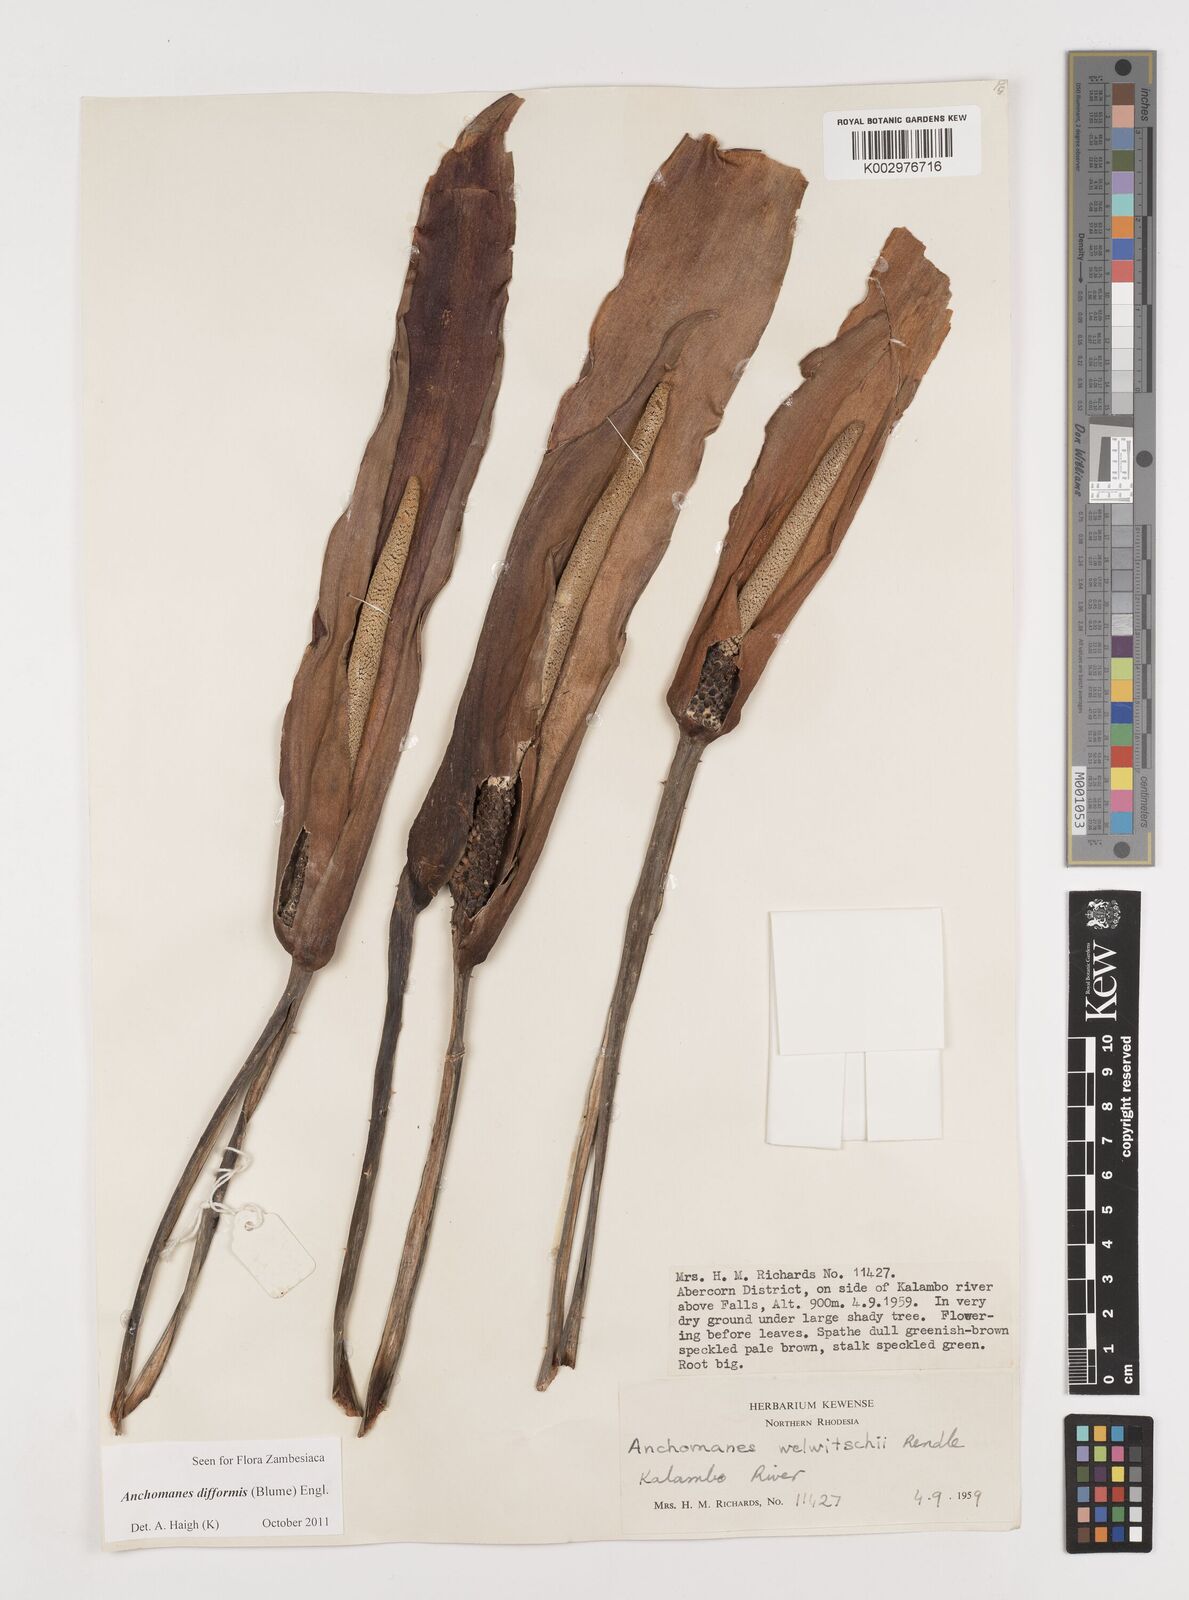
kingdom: Plantae
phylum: Tracheophyta
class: Liliopsida
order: Alismatales
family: Araceae
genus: Anchomanes
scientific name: Anchomanes difformis
